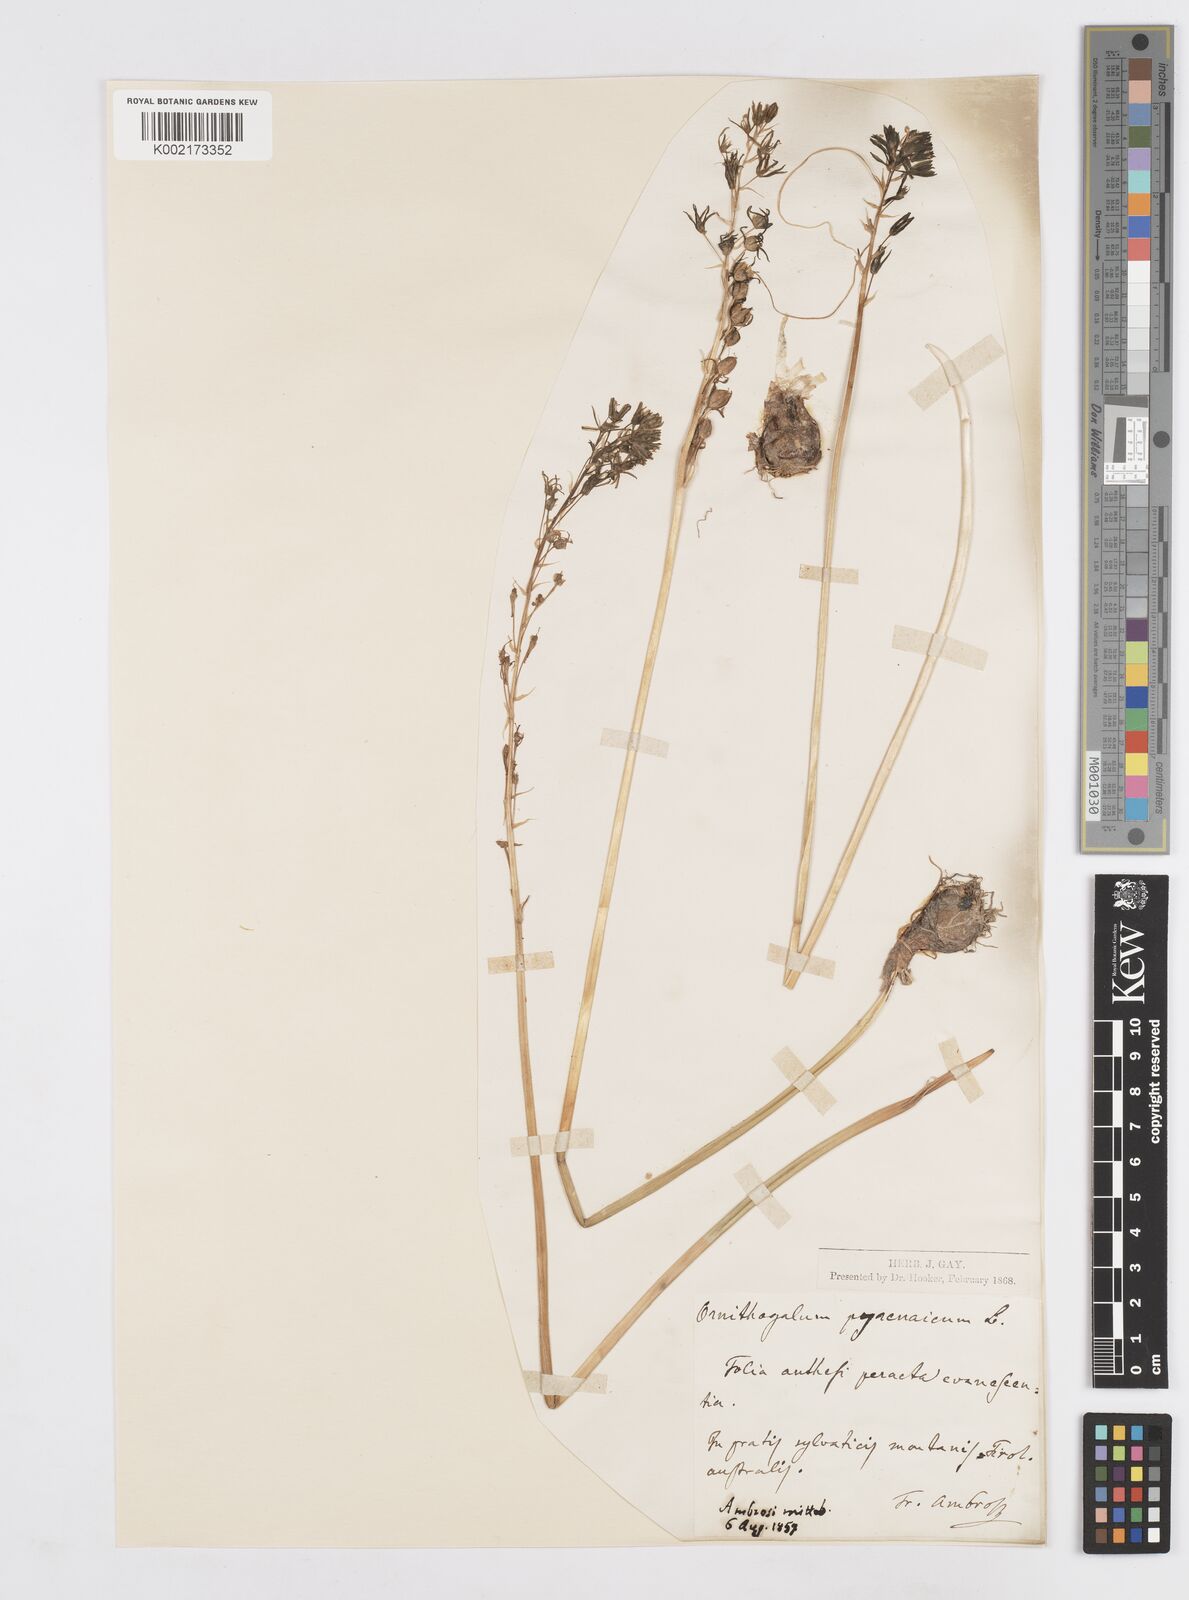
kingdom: Plantae
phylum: Tracheophyta
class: Liliopsida
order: Asparagales
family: Asparagaceae
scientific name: Asparagaceae
